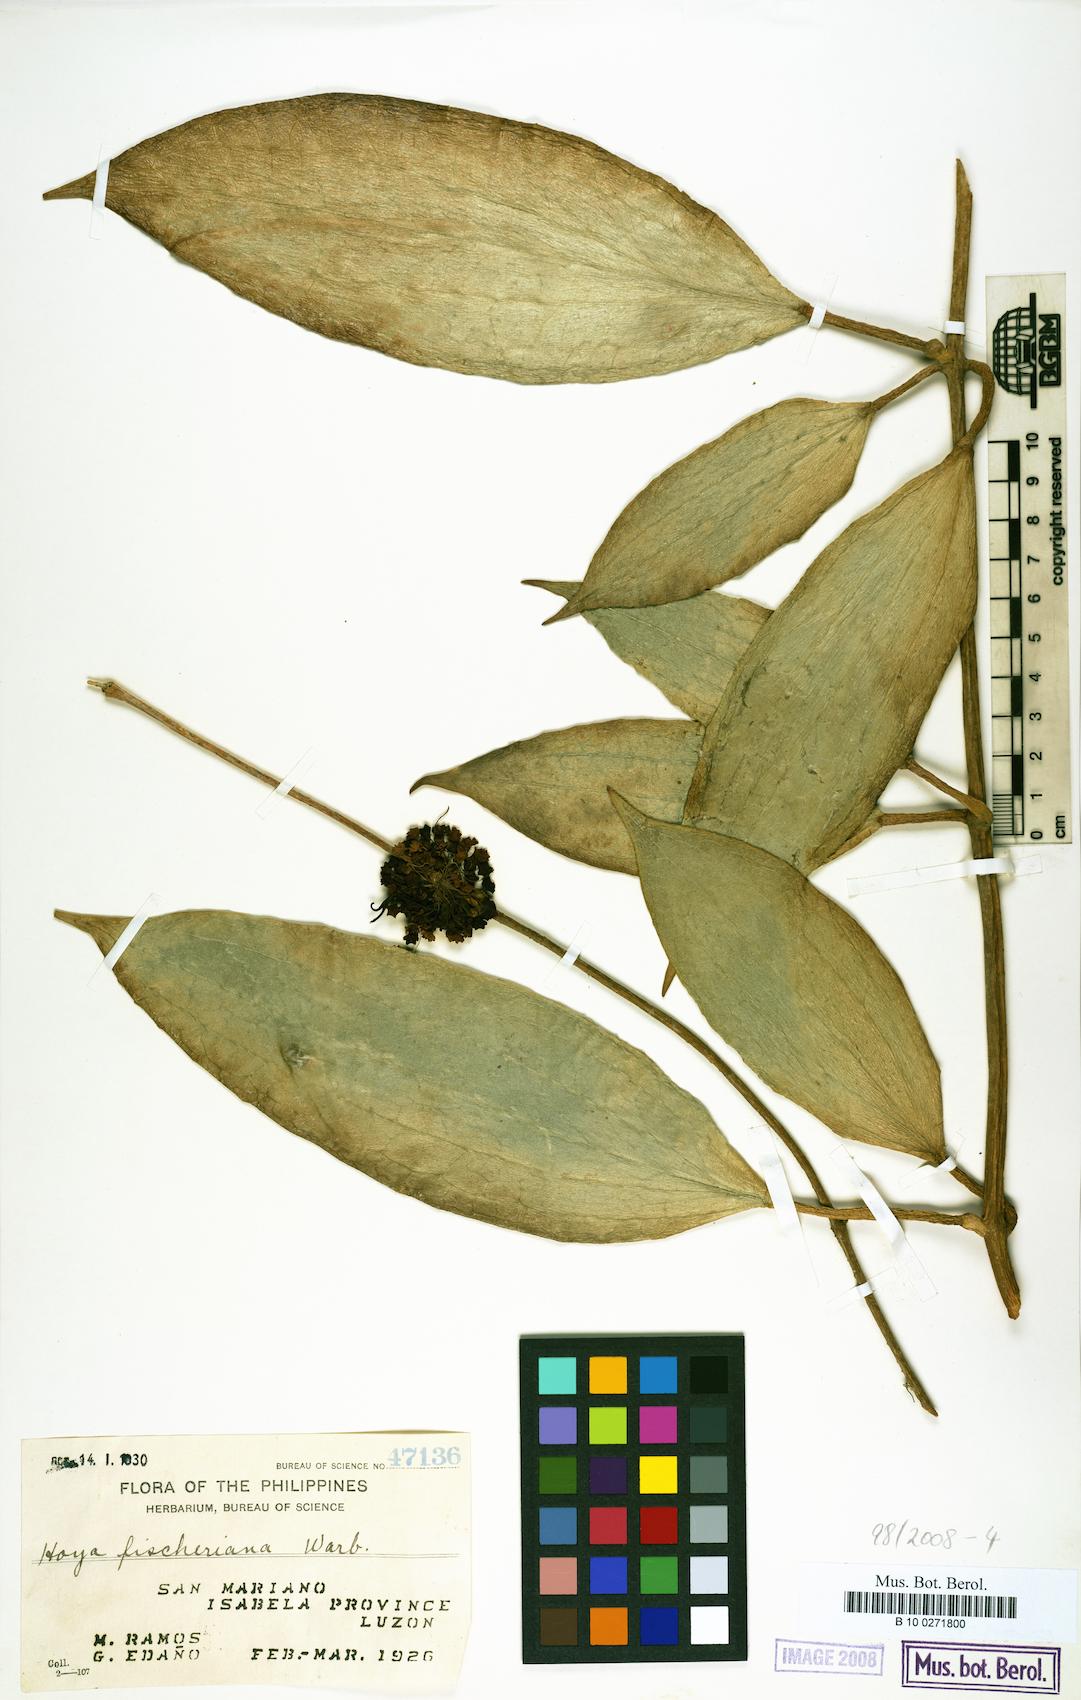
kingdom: Plantae
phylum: Tracheophyta
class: Magnoliopsida
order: Gentianales
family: Apocynaceae
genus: Hoya
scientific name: Hoya fischeriana
